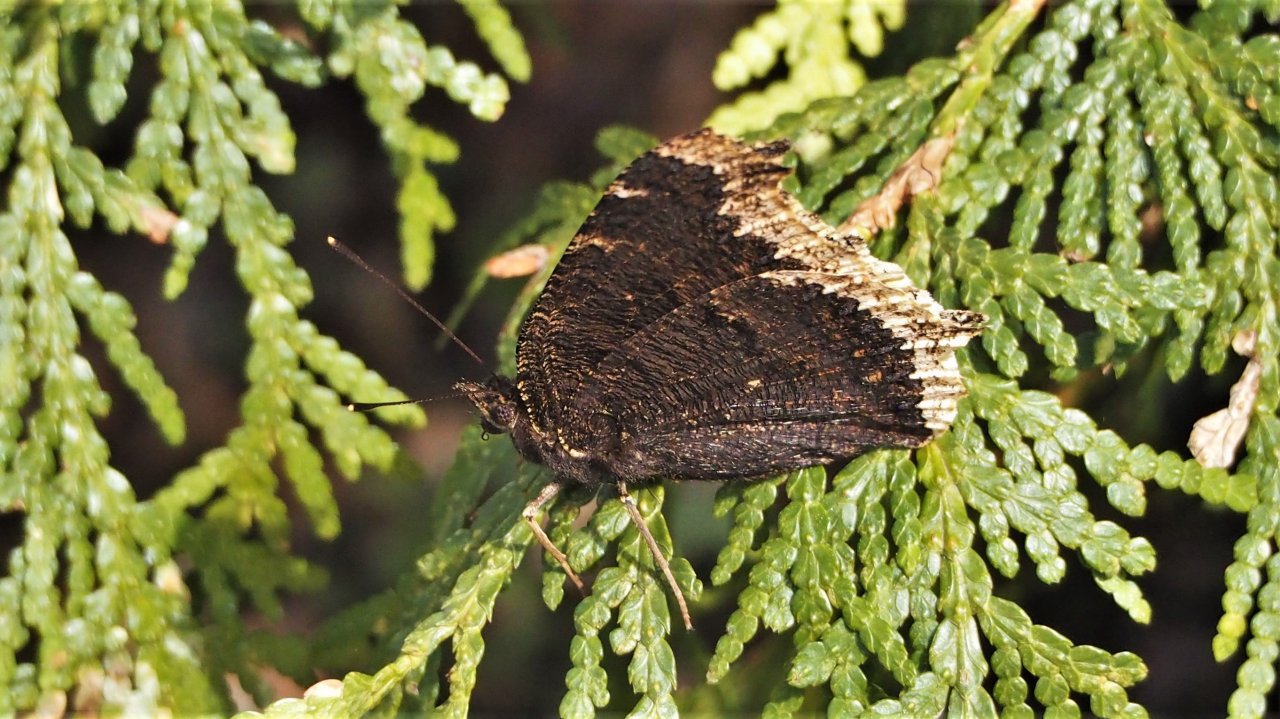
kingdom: Animalia
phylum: Arthropoda
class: Insecta
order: Lepidoptera
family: Nymphalidae
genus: Nymphalis
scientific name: Nymphalis antiopa
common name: Mourning Cloak
